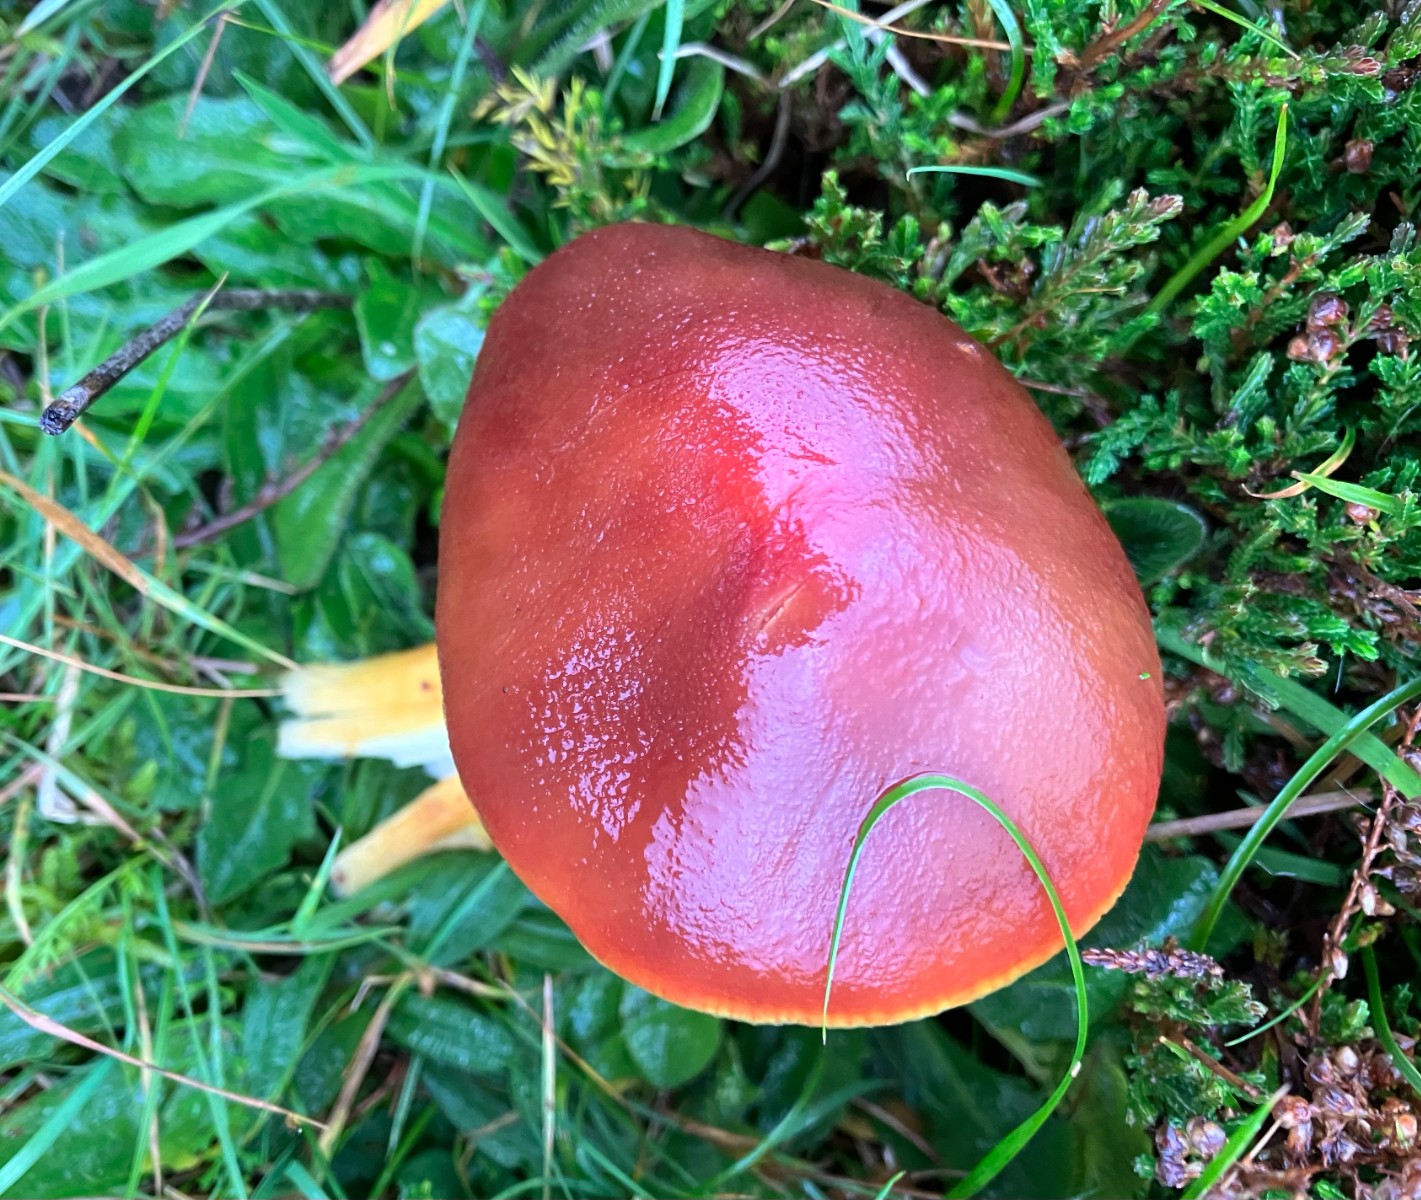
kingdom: Fungi
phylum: Basidiomycota
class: Agaricomycetes
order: Agaricales
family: Hygrophoraceae
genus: Hygrocybe
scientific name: Hygrocybe punicea
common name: skarlagen-vokshat
